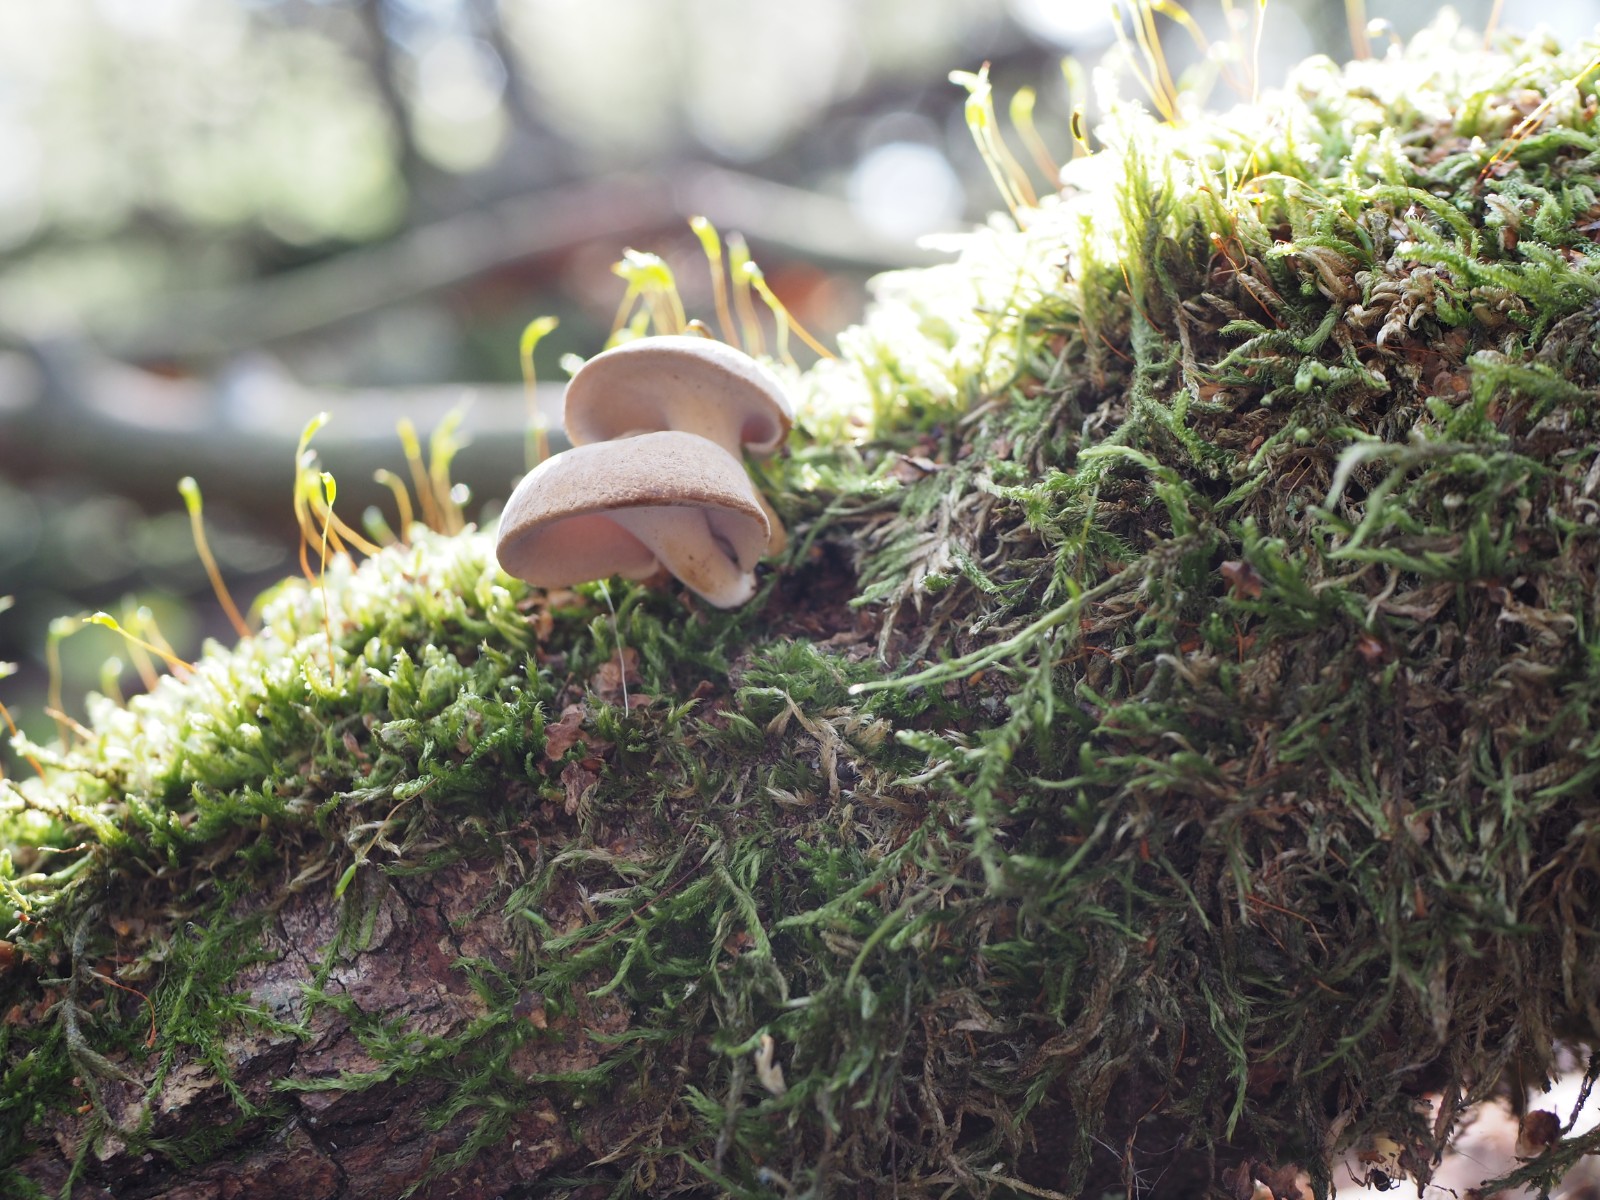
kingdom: Fungi
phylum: Basidiomycota
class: Agaricomycetes
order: Polyporales
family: Polyporaceae
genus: Cerioporus
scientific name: Cerioporus varius
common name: foranderlig stilkporesvamp
